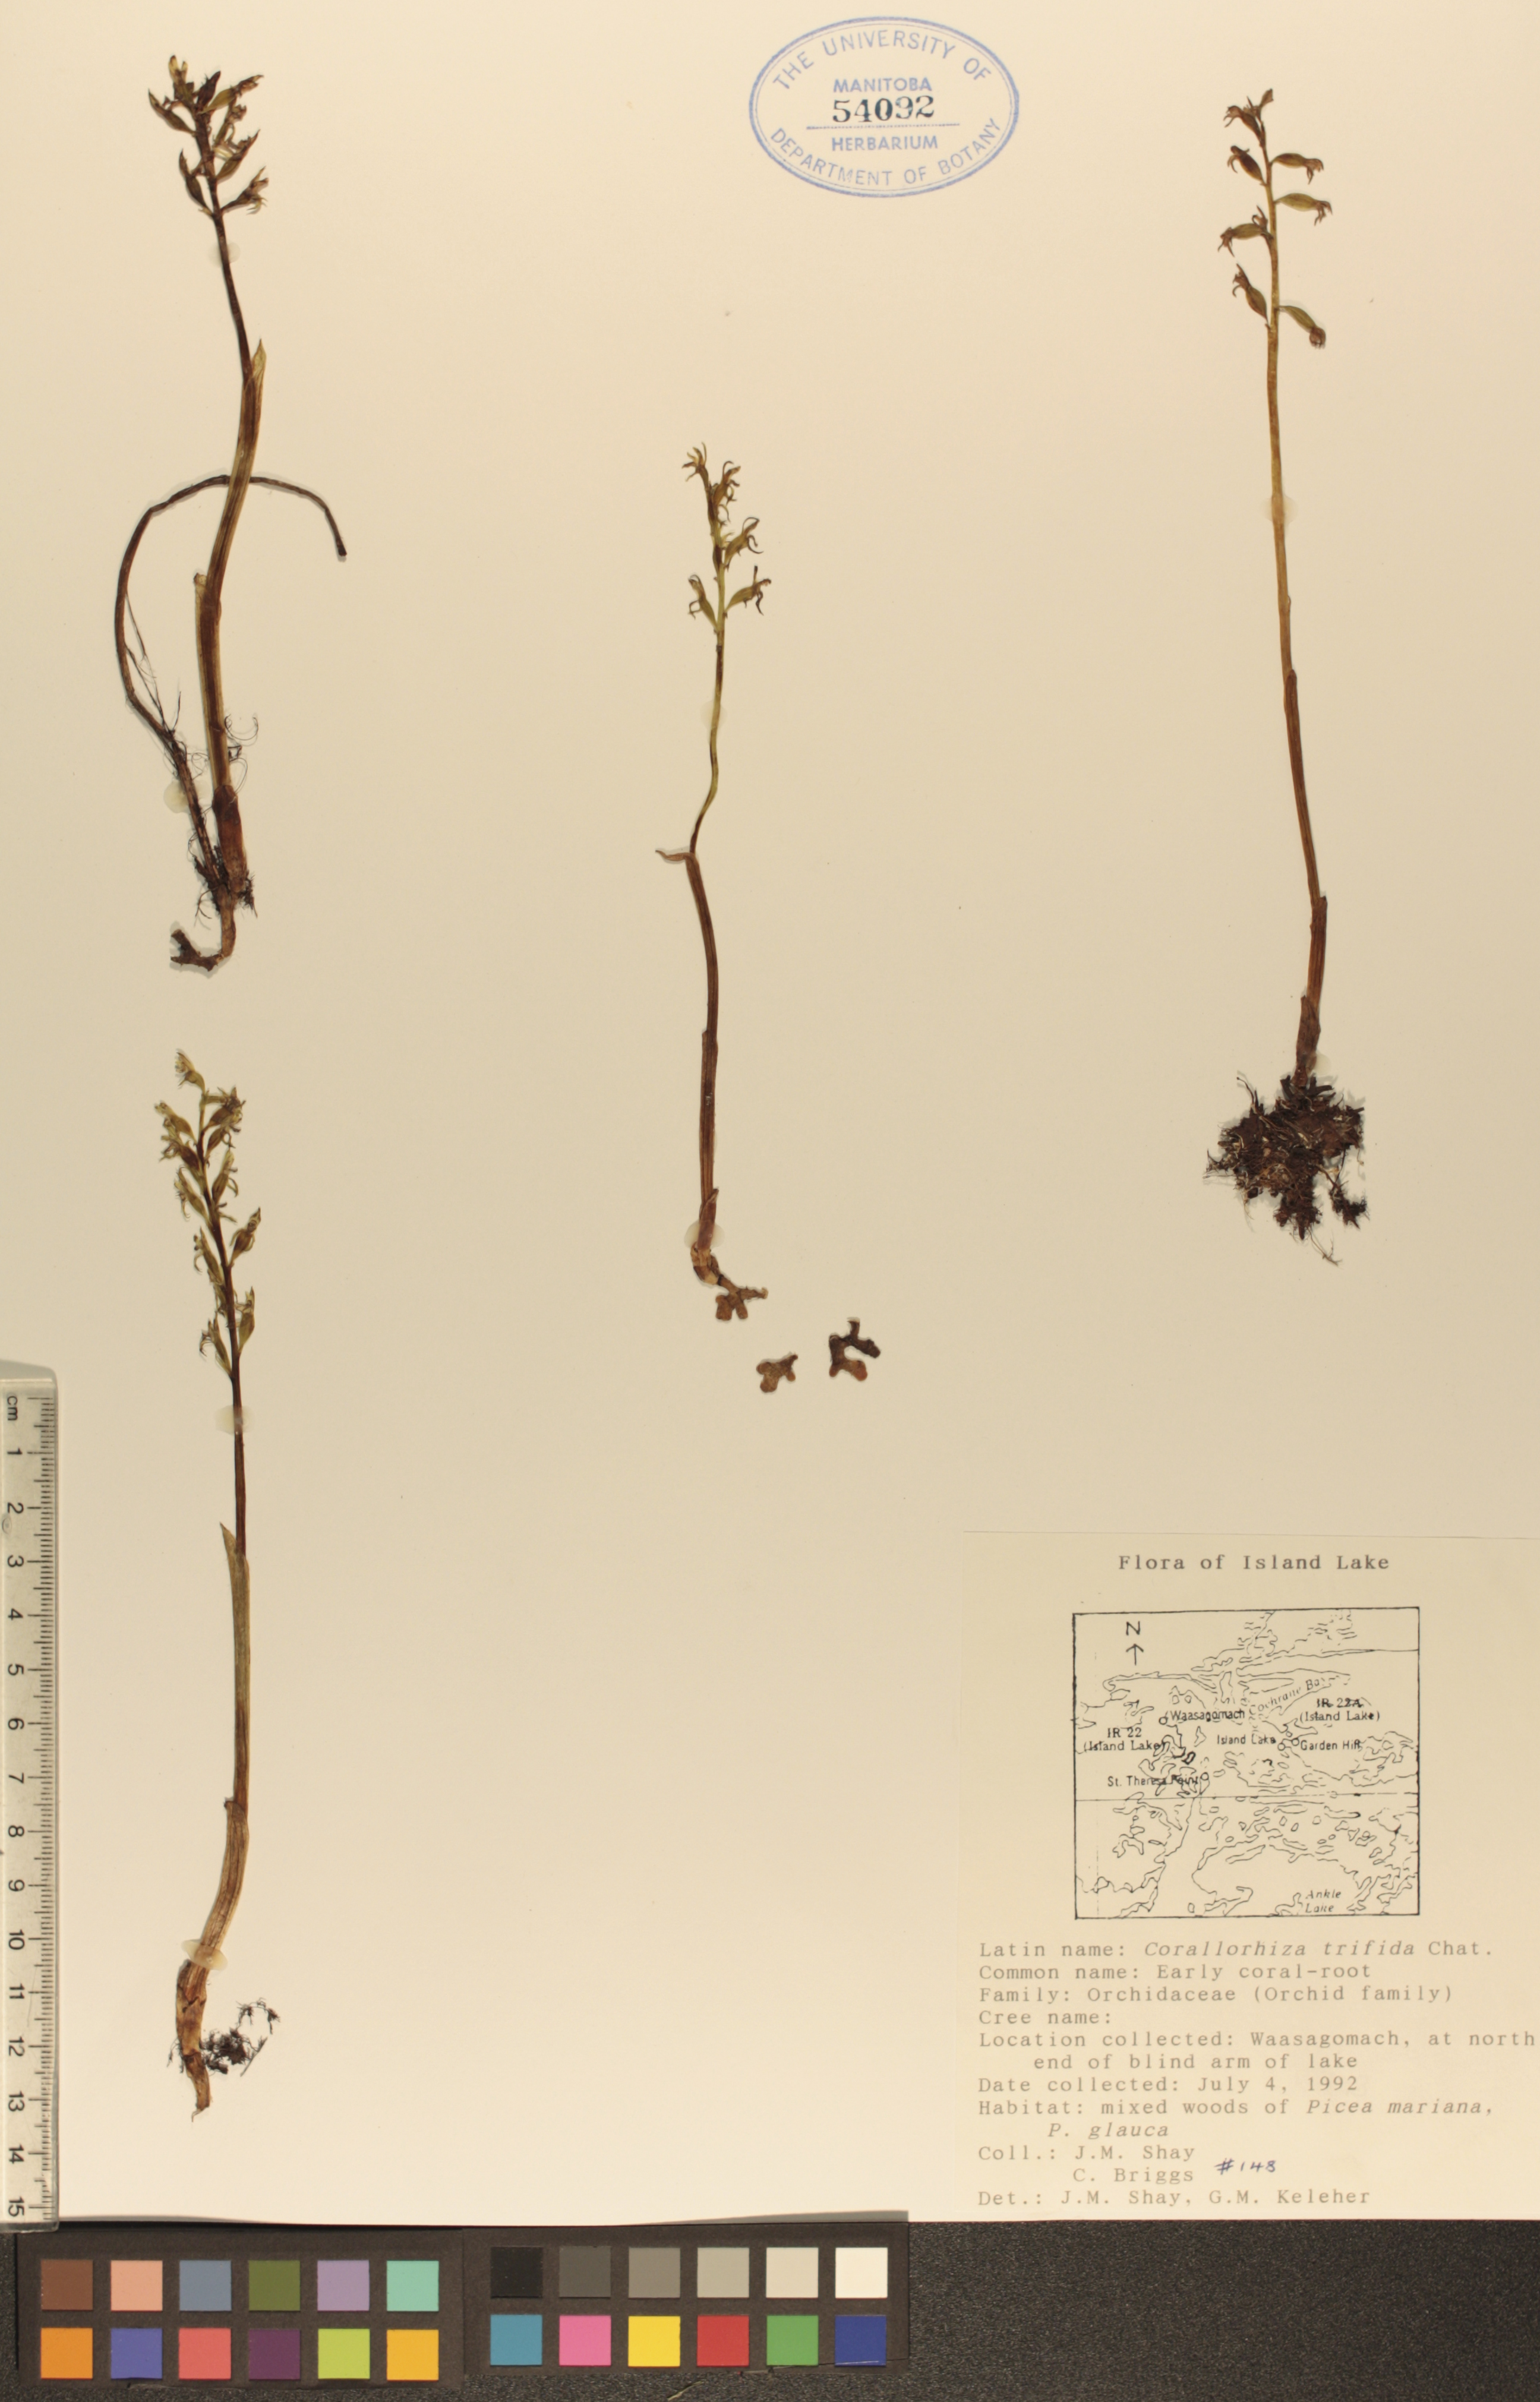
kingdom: Plantae
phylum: Tracheophyta
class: Liliopsida
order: Asparagales
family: Orchidaceae
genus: Corallorhiza
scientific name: Corallorhiza trifida
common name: Yellow coralroot
